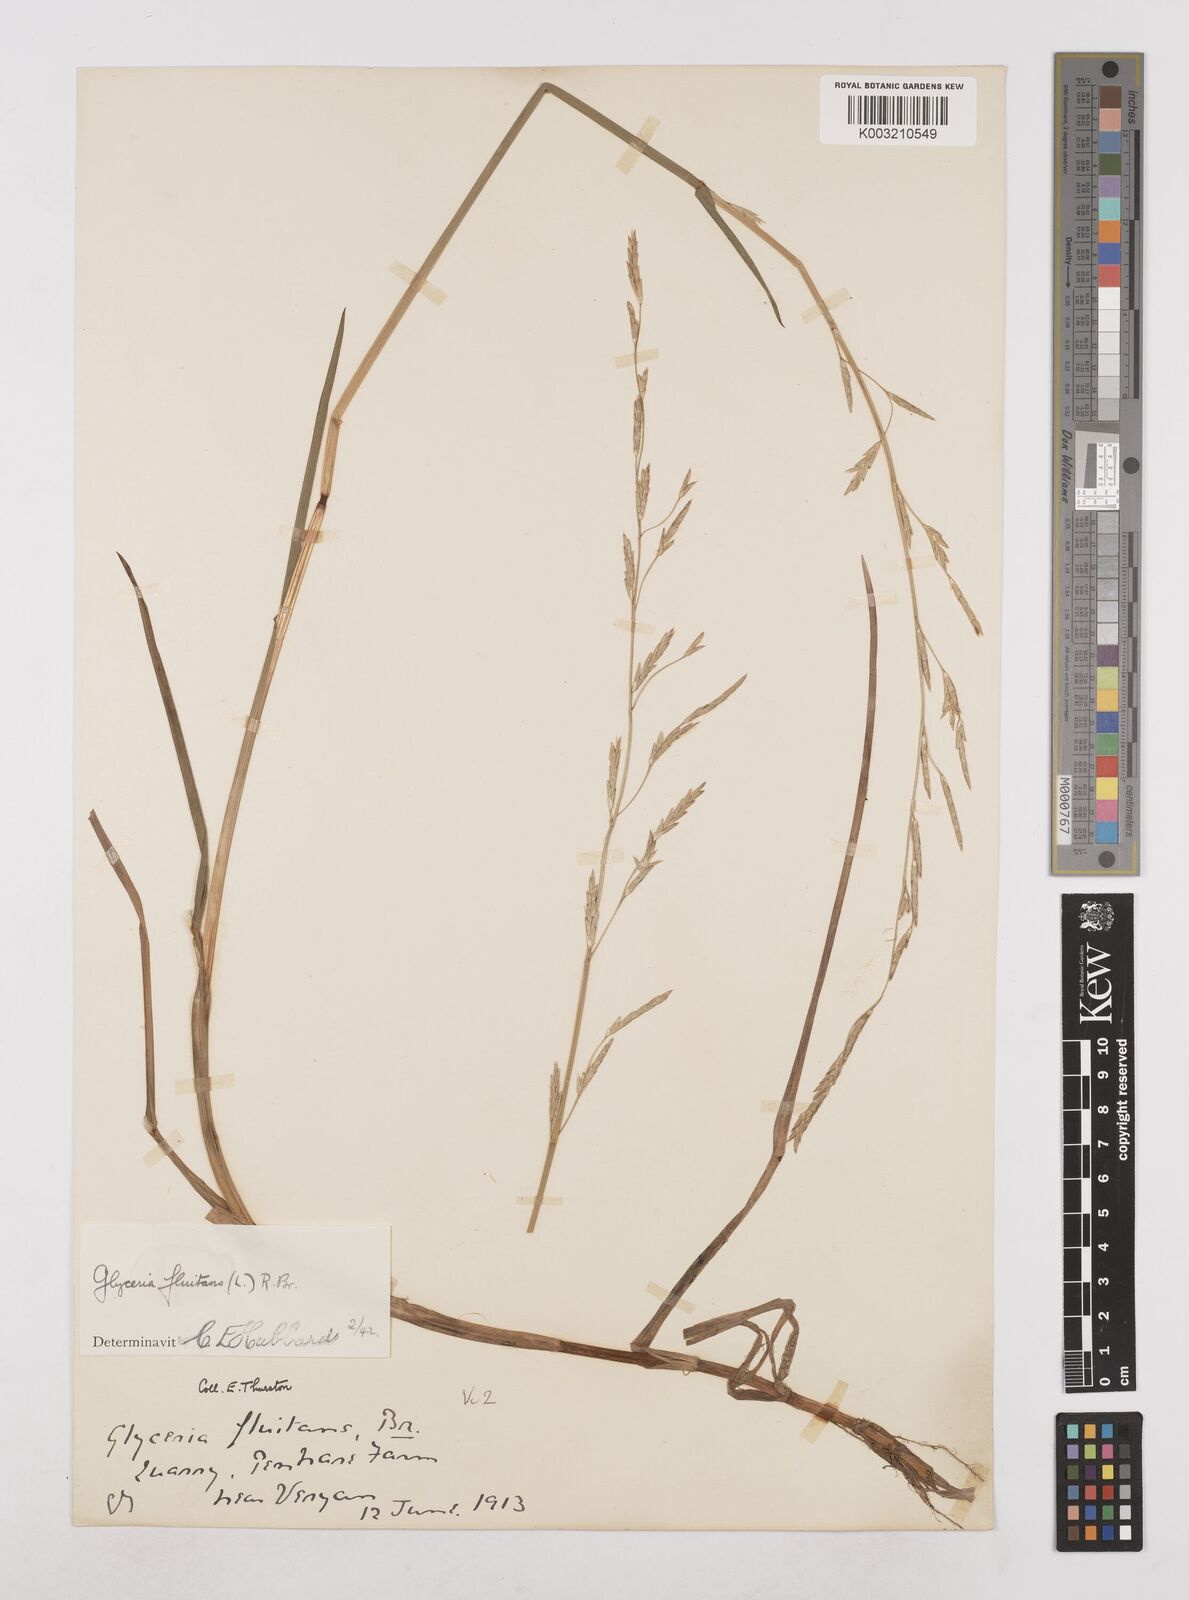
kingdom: Plantae
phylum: Tracheophyta
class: Liliopsida
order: Poales
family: Poaceae
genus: Glyceria
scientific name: Glyceria fluitans
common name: Floating sweet-grass
